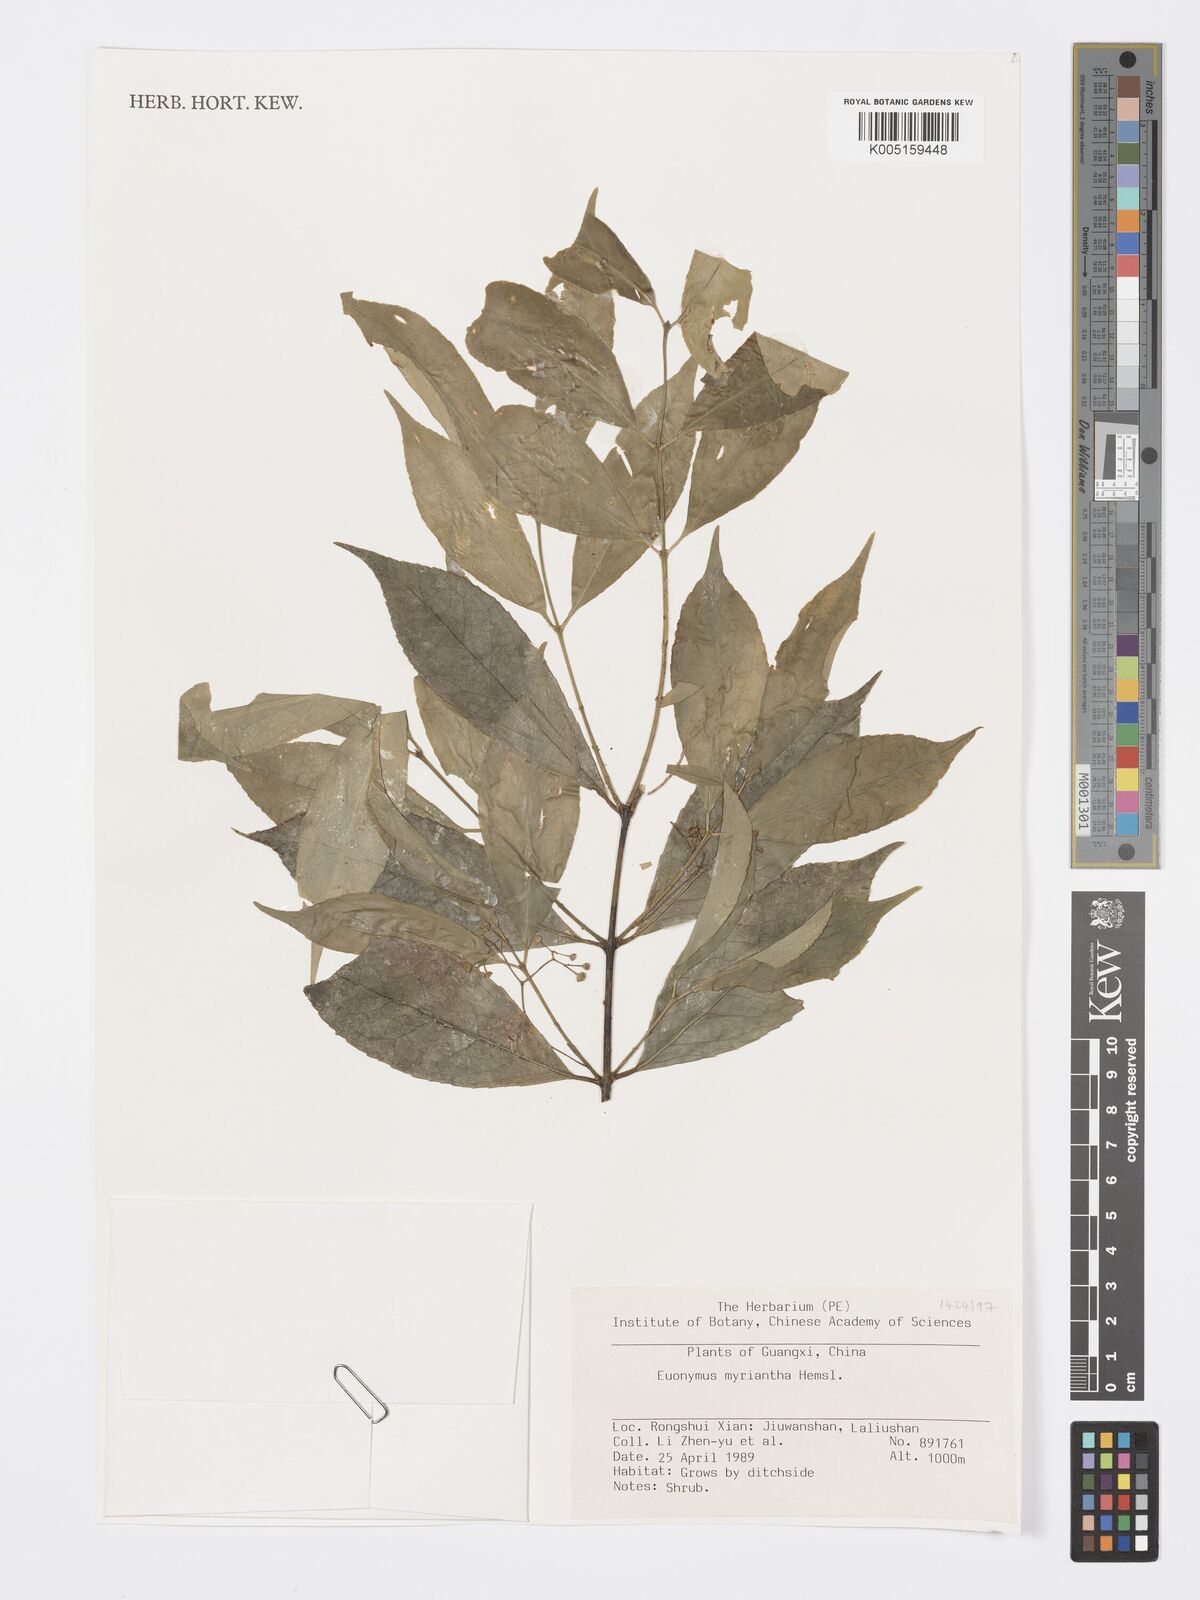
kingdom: Plantae
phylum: Tracheophyta
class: Magnoliopsida
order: Celastrales
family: Celastraceae
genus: Euonymus
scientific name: Euonymus myrianthus
